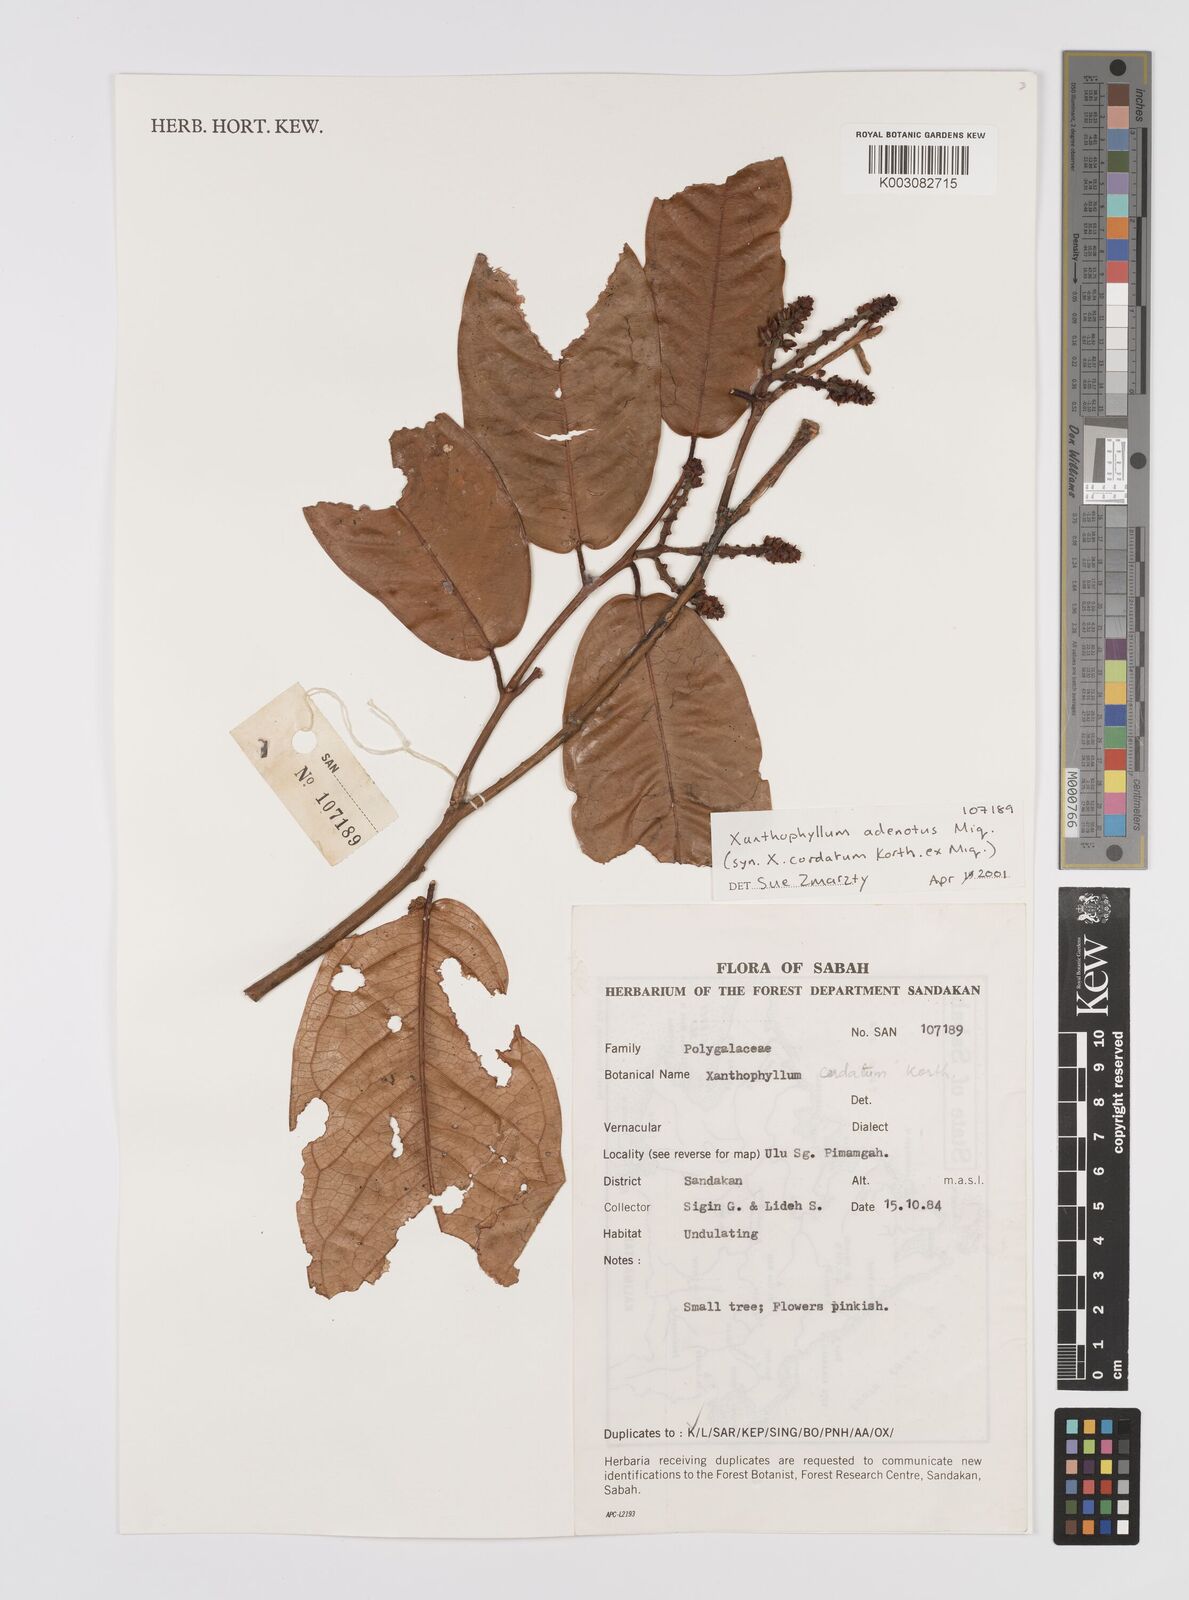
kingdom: Plantae
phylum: Tracheophyta
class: Magnoliopsida
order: Fabales
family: Polygalaceae
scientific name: Polygalaceae
